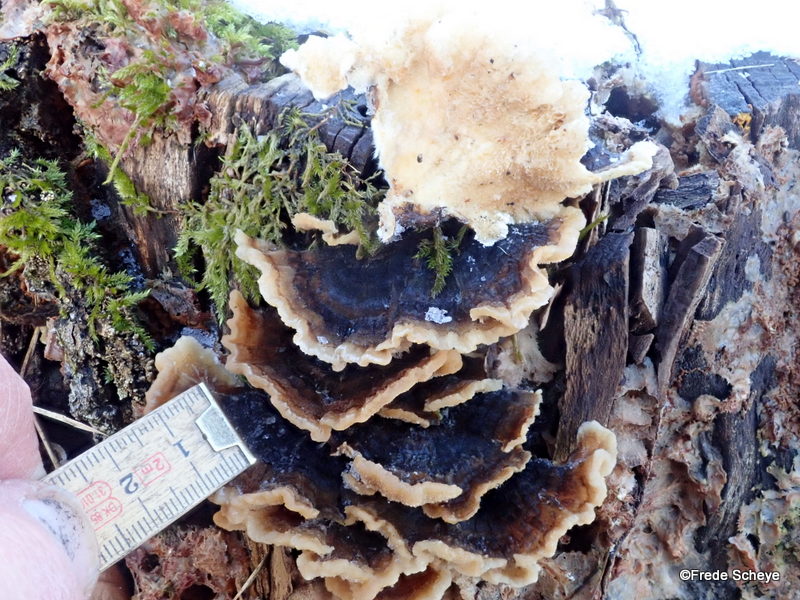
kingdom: Fungi
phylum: Basidiomycota
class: Agaricomycetes
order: Polyporales
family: Polyporaceae
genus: Trametes
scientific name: Trametes versicolor
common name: broget læderporesvamp
